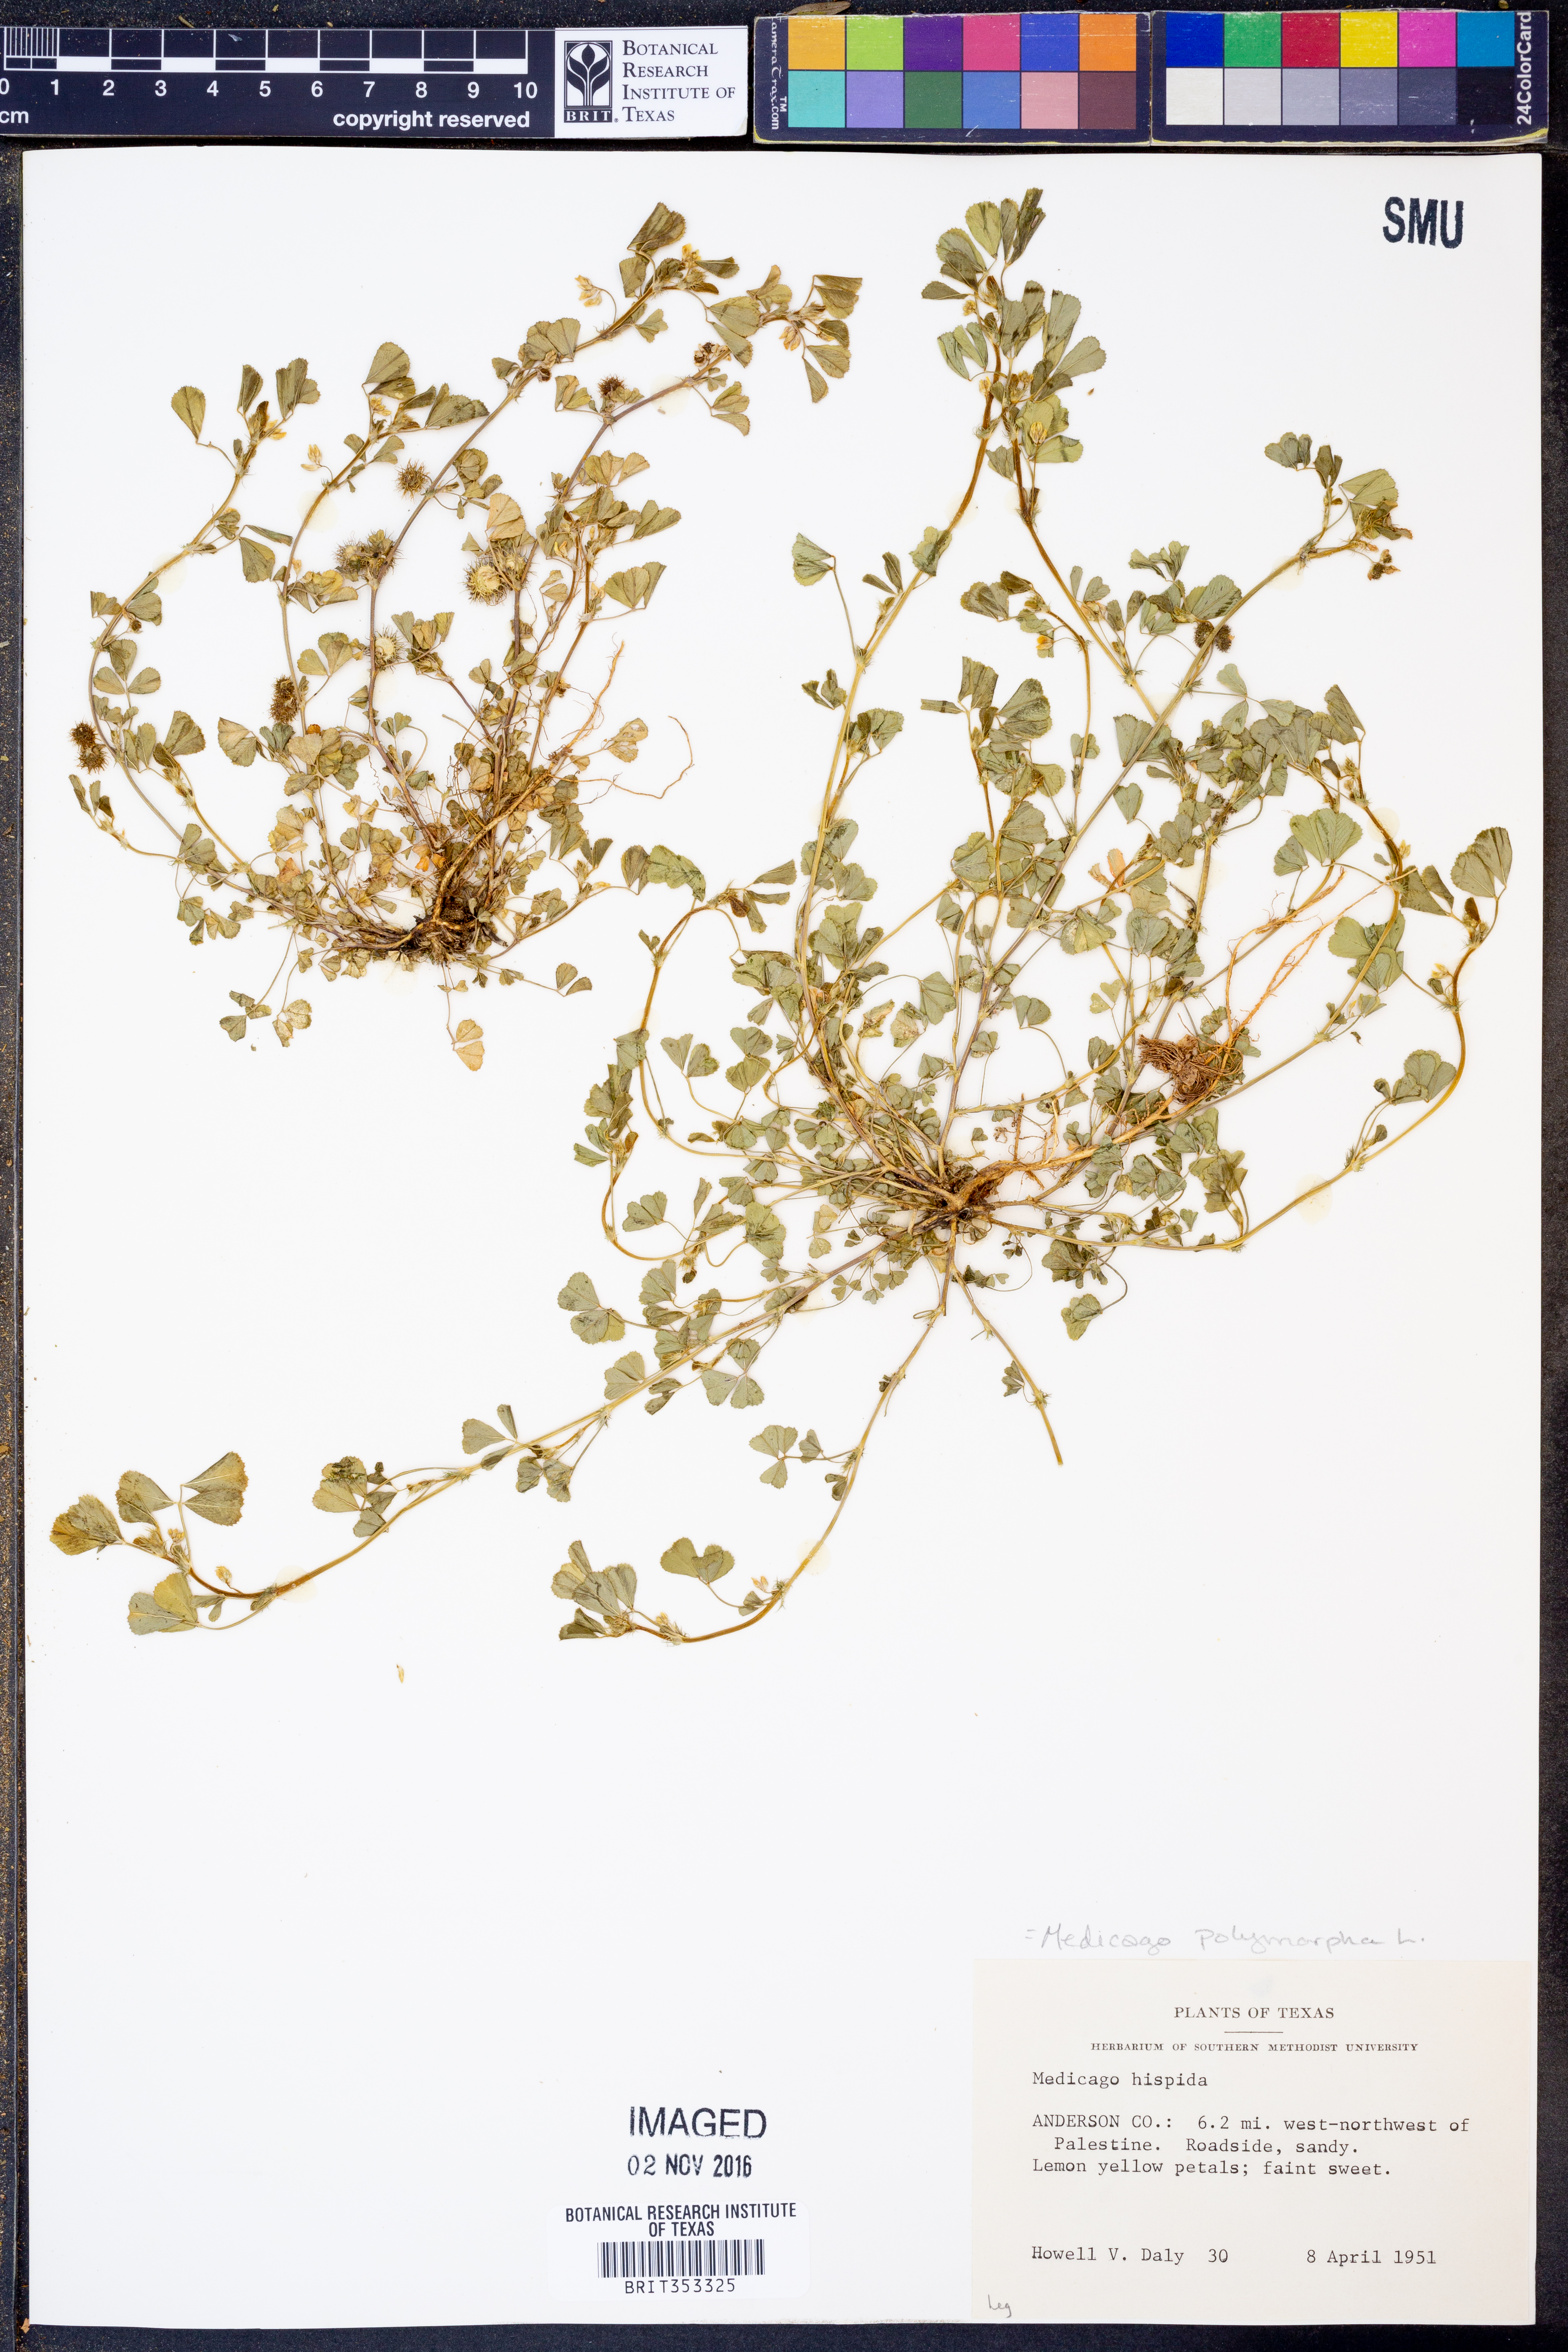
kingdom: Plantae
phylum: Tracheophyta
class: Magnoliopsida
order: Fabales
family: Fabaceae
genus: Medicago
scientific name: Medicago polymorpha
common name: Burclover
